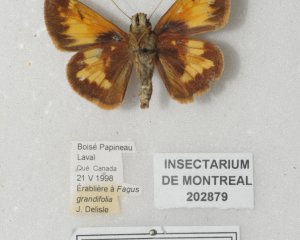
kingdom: Animalia
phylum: Arthropoda
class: Insecta
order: Lepidoptera
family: Hesperiidae
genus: Lon
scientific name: Lon hobomok
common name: Hobomok Skipper
